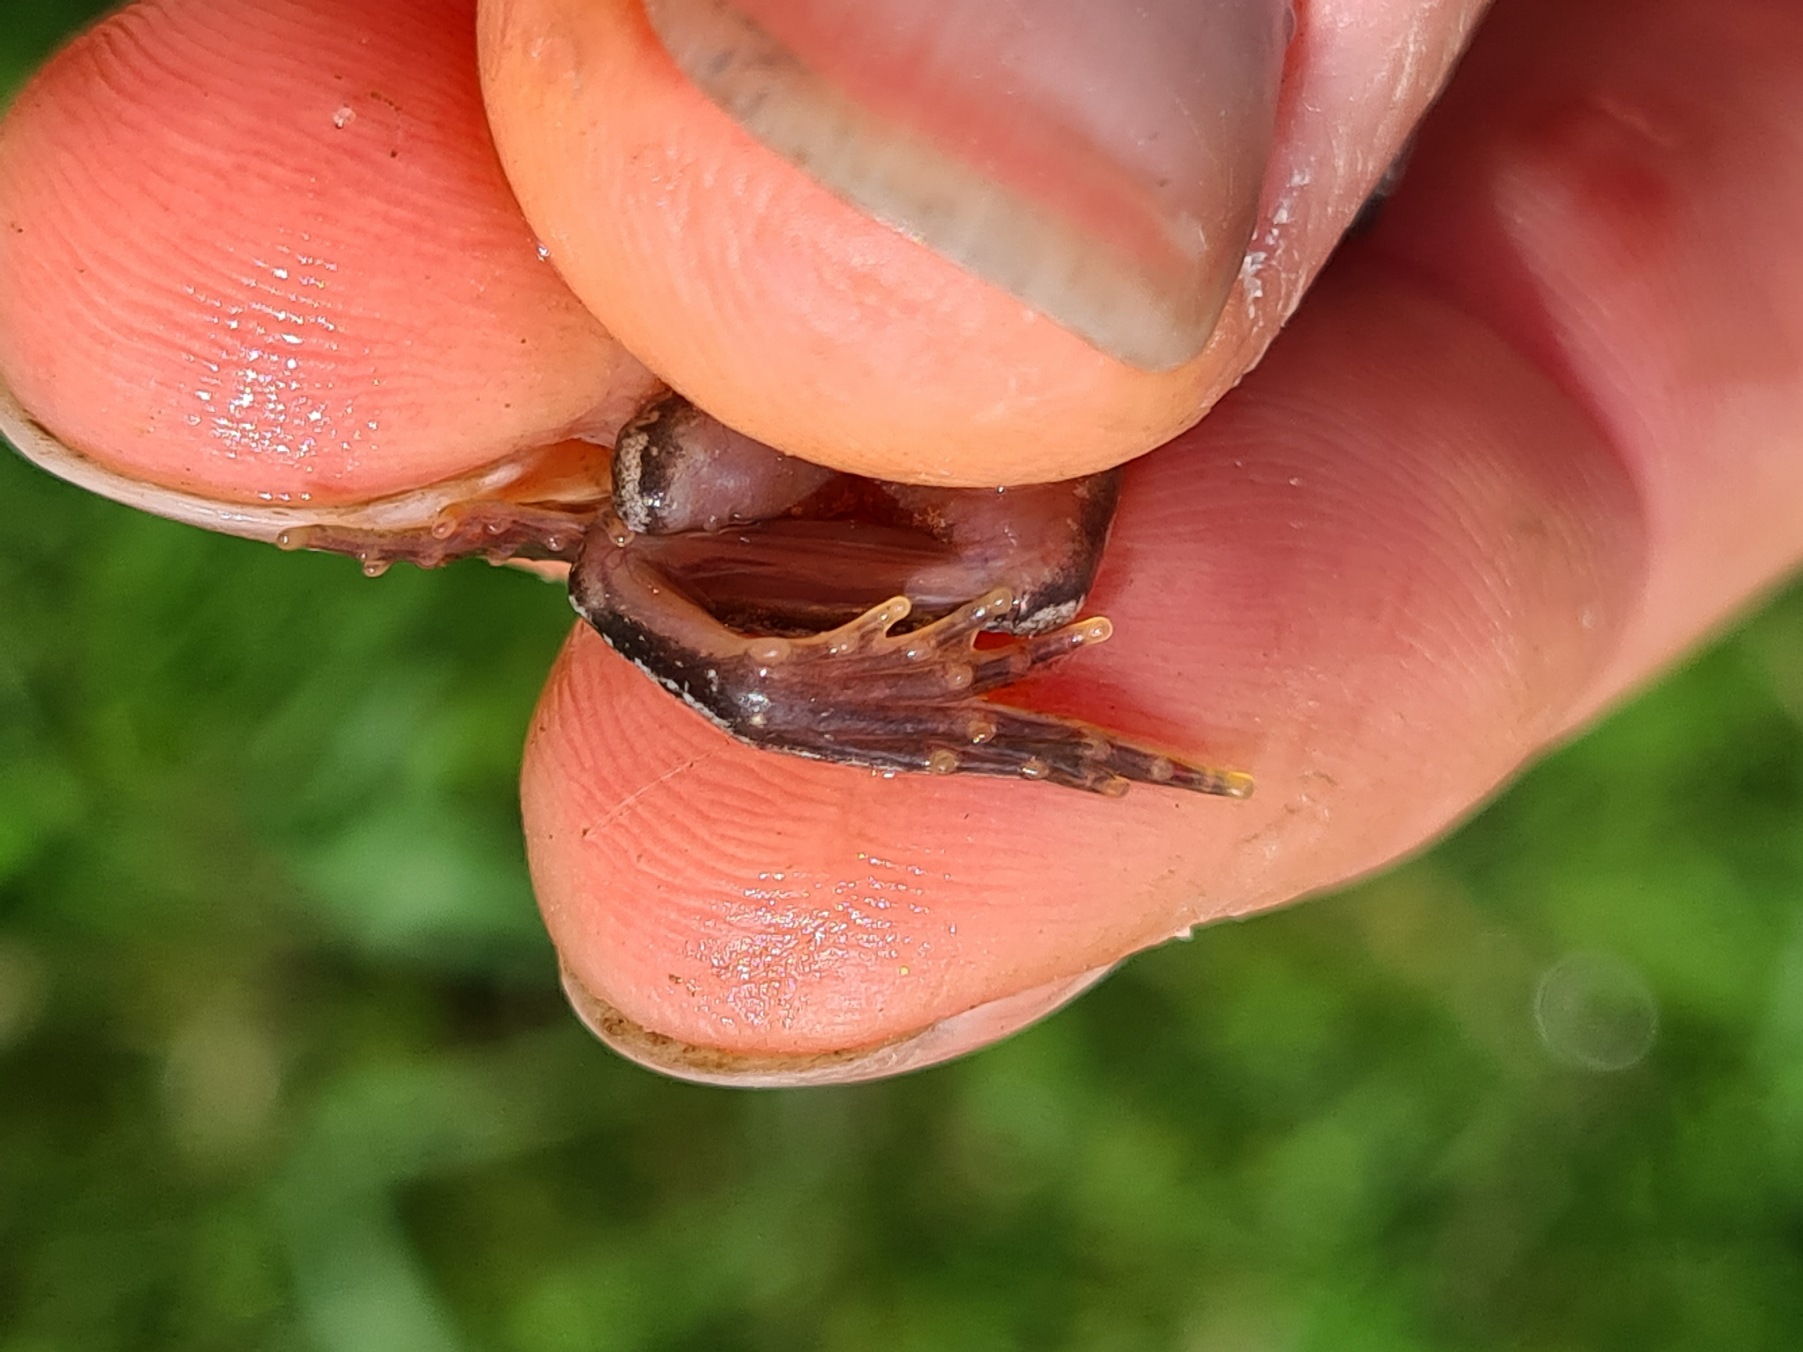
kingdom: Animalia
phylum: Chordata
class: Amphibia
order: Anura
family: Ranidae
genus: Rana
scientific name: Rana temporaria
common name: Butsnudet frø
